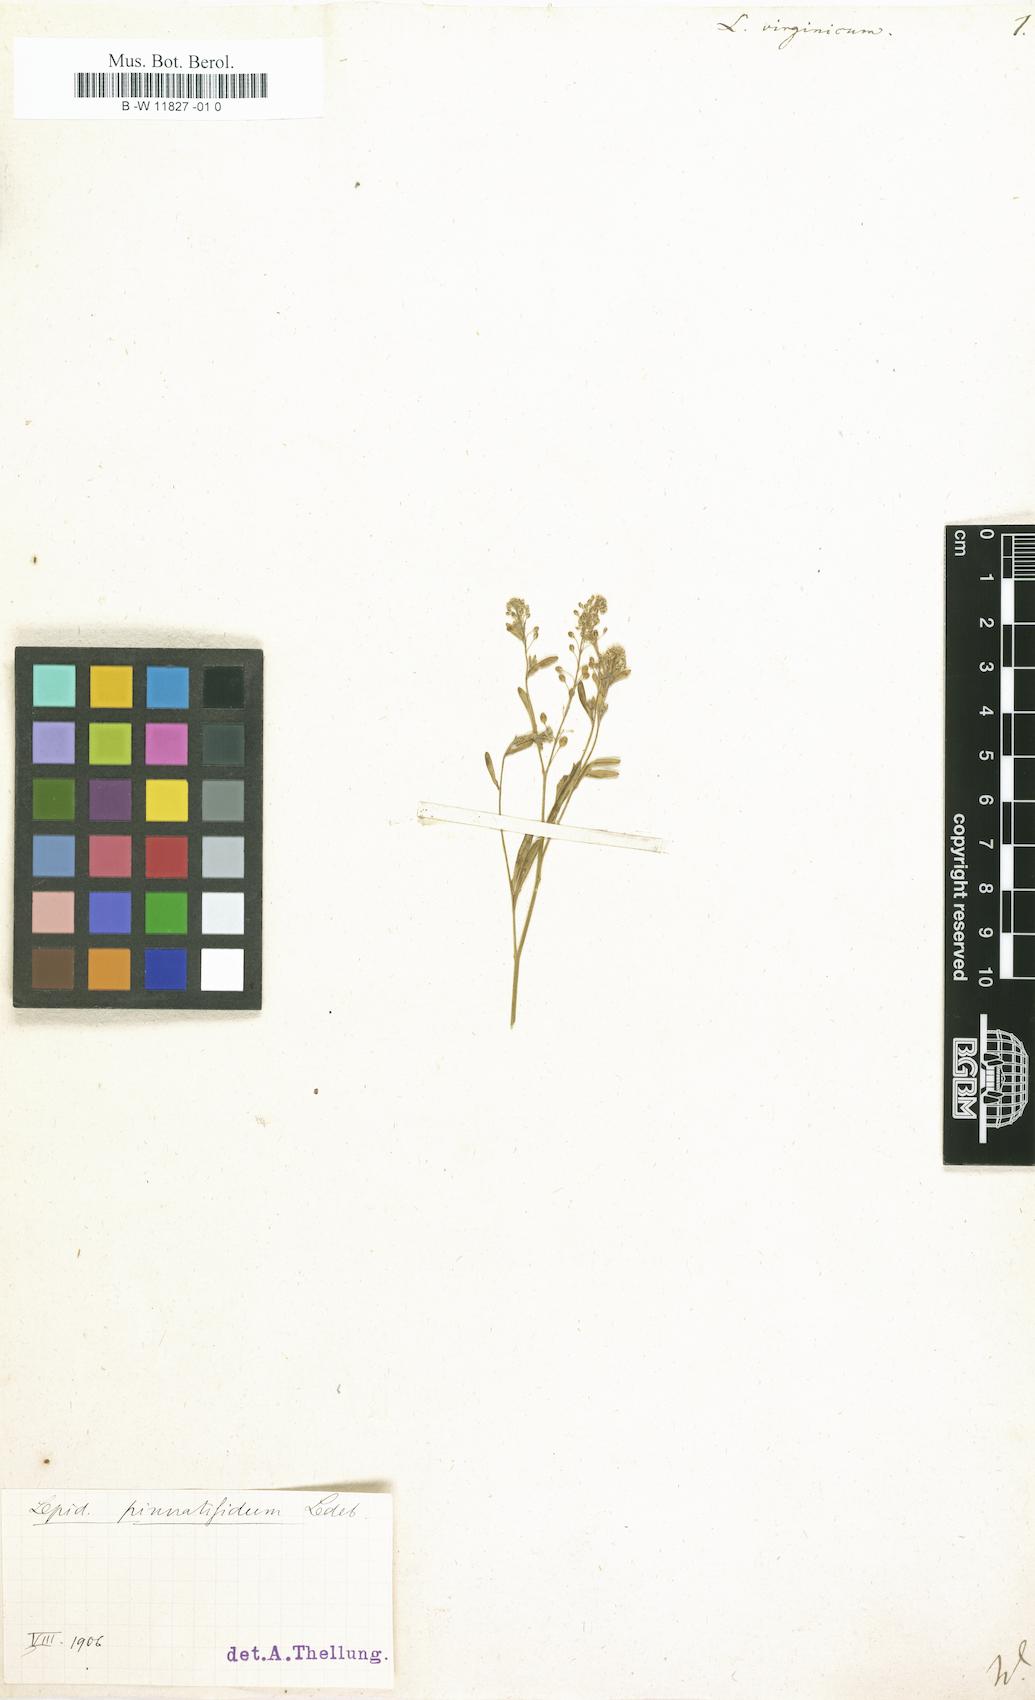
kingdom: Plantae
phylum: Tracheophyta
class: Magnoliopsida
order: Brassicales
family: Brassicaceae
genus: Lepidium
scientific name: Lepidium virginicum
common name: Least pepperwort
